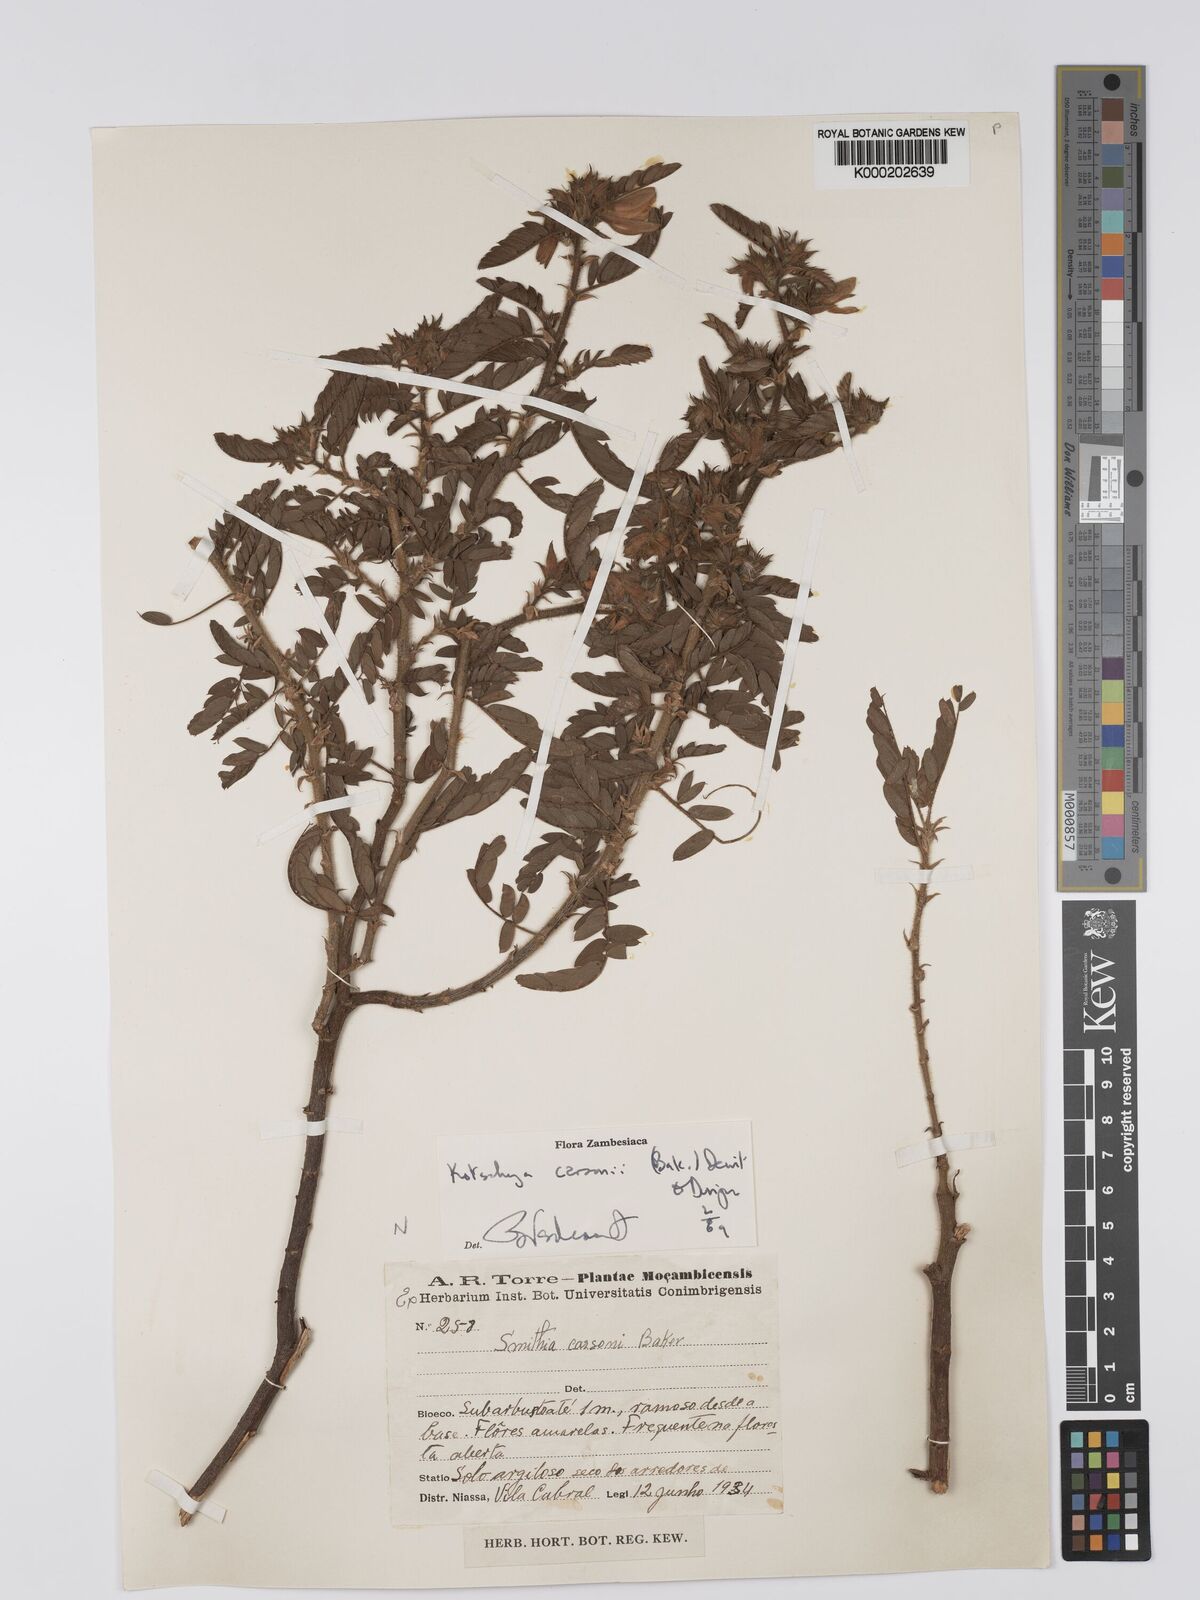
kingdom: Plantae
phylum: Tracheophyta
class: Magnoliopsida
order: Fabales
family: Fabaceae
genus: Kotschya
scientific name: Kotschya carsonii
